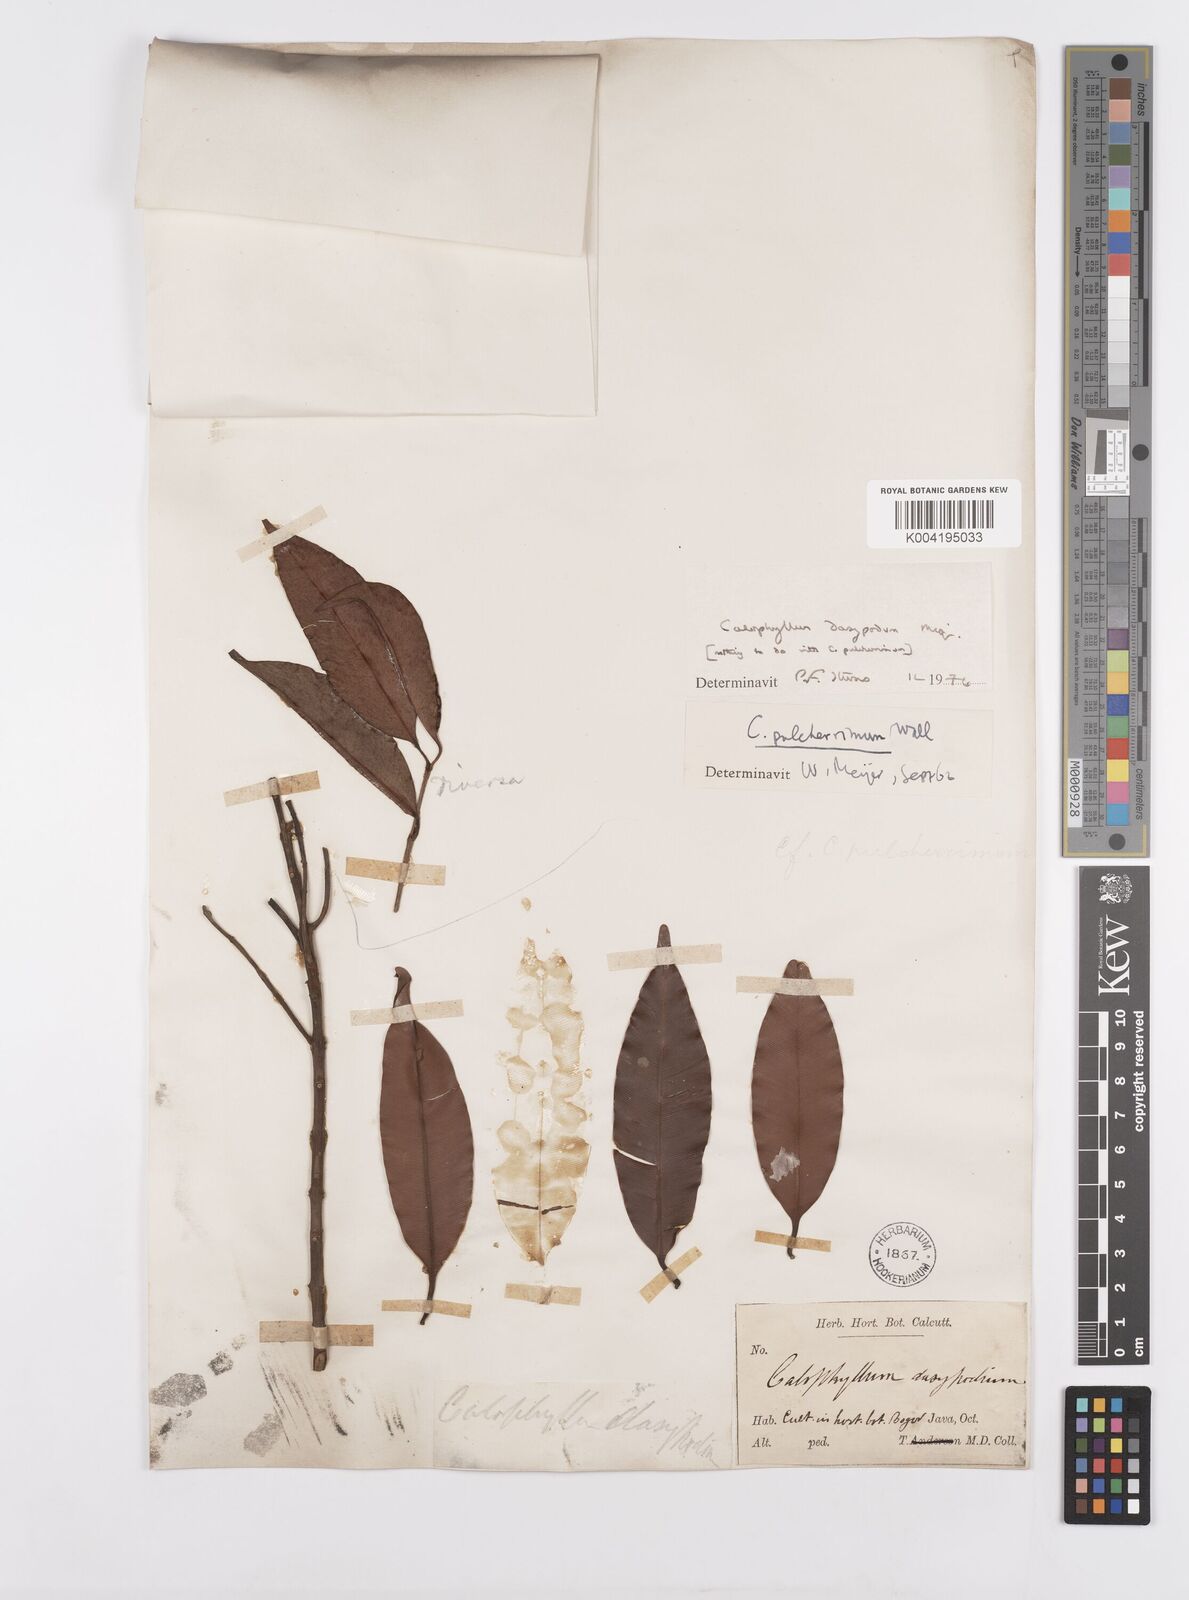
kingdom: Plantae
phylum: Tracheophyta
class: Magnoliopsida
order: Malpighiales
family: Calophyllaceae
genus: Calophyllum
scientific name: Calophyllum dasypodium
